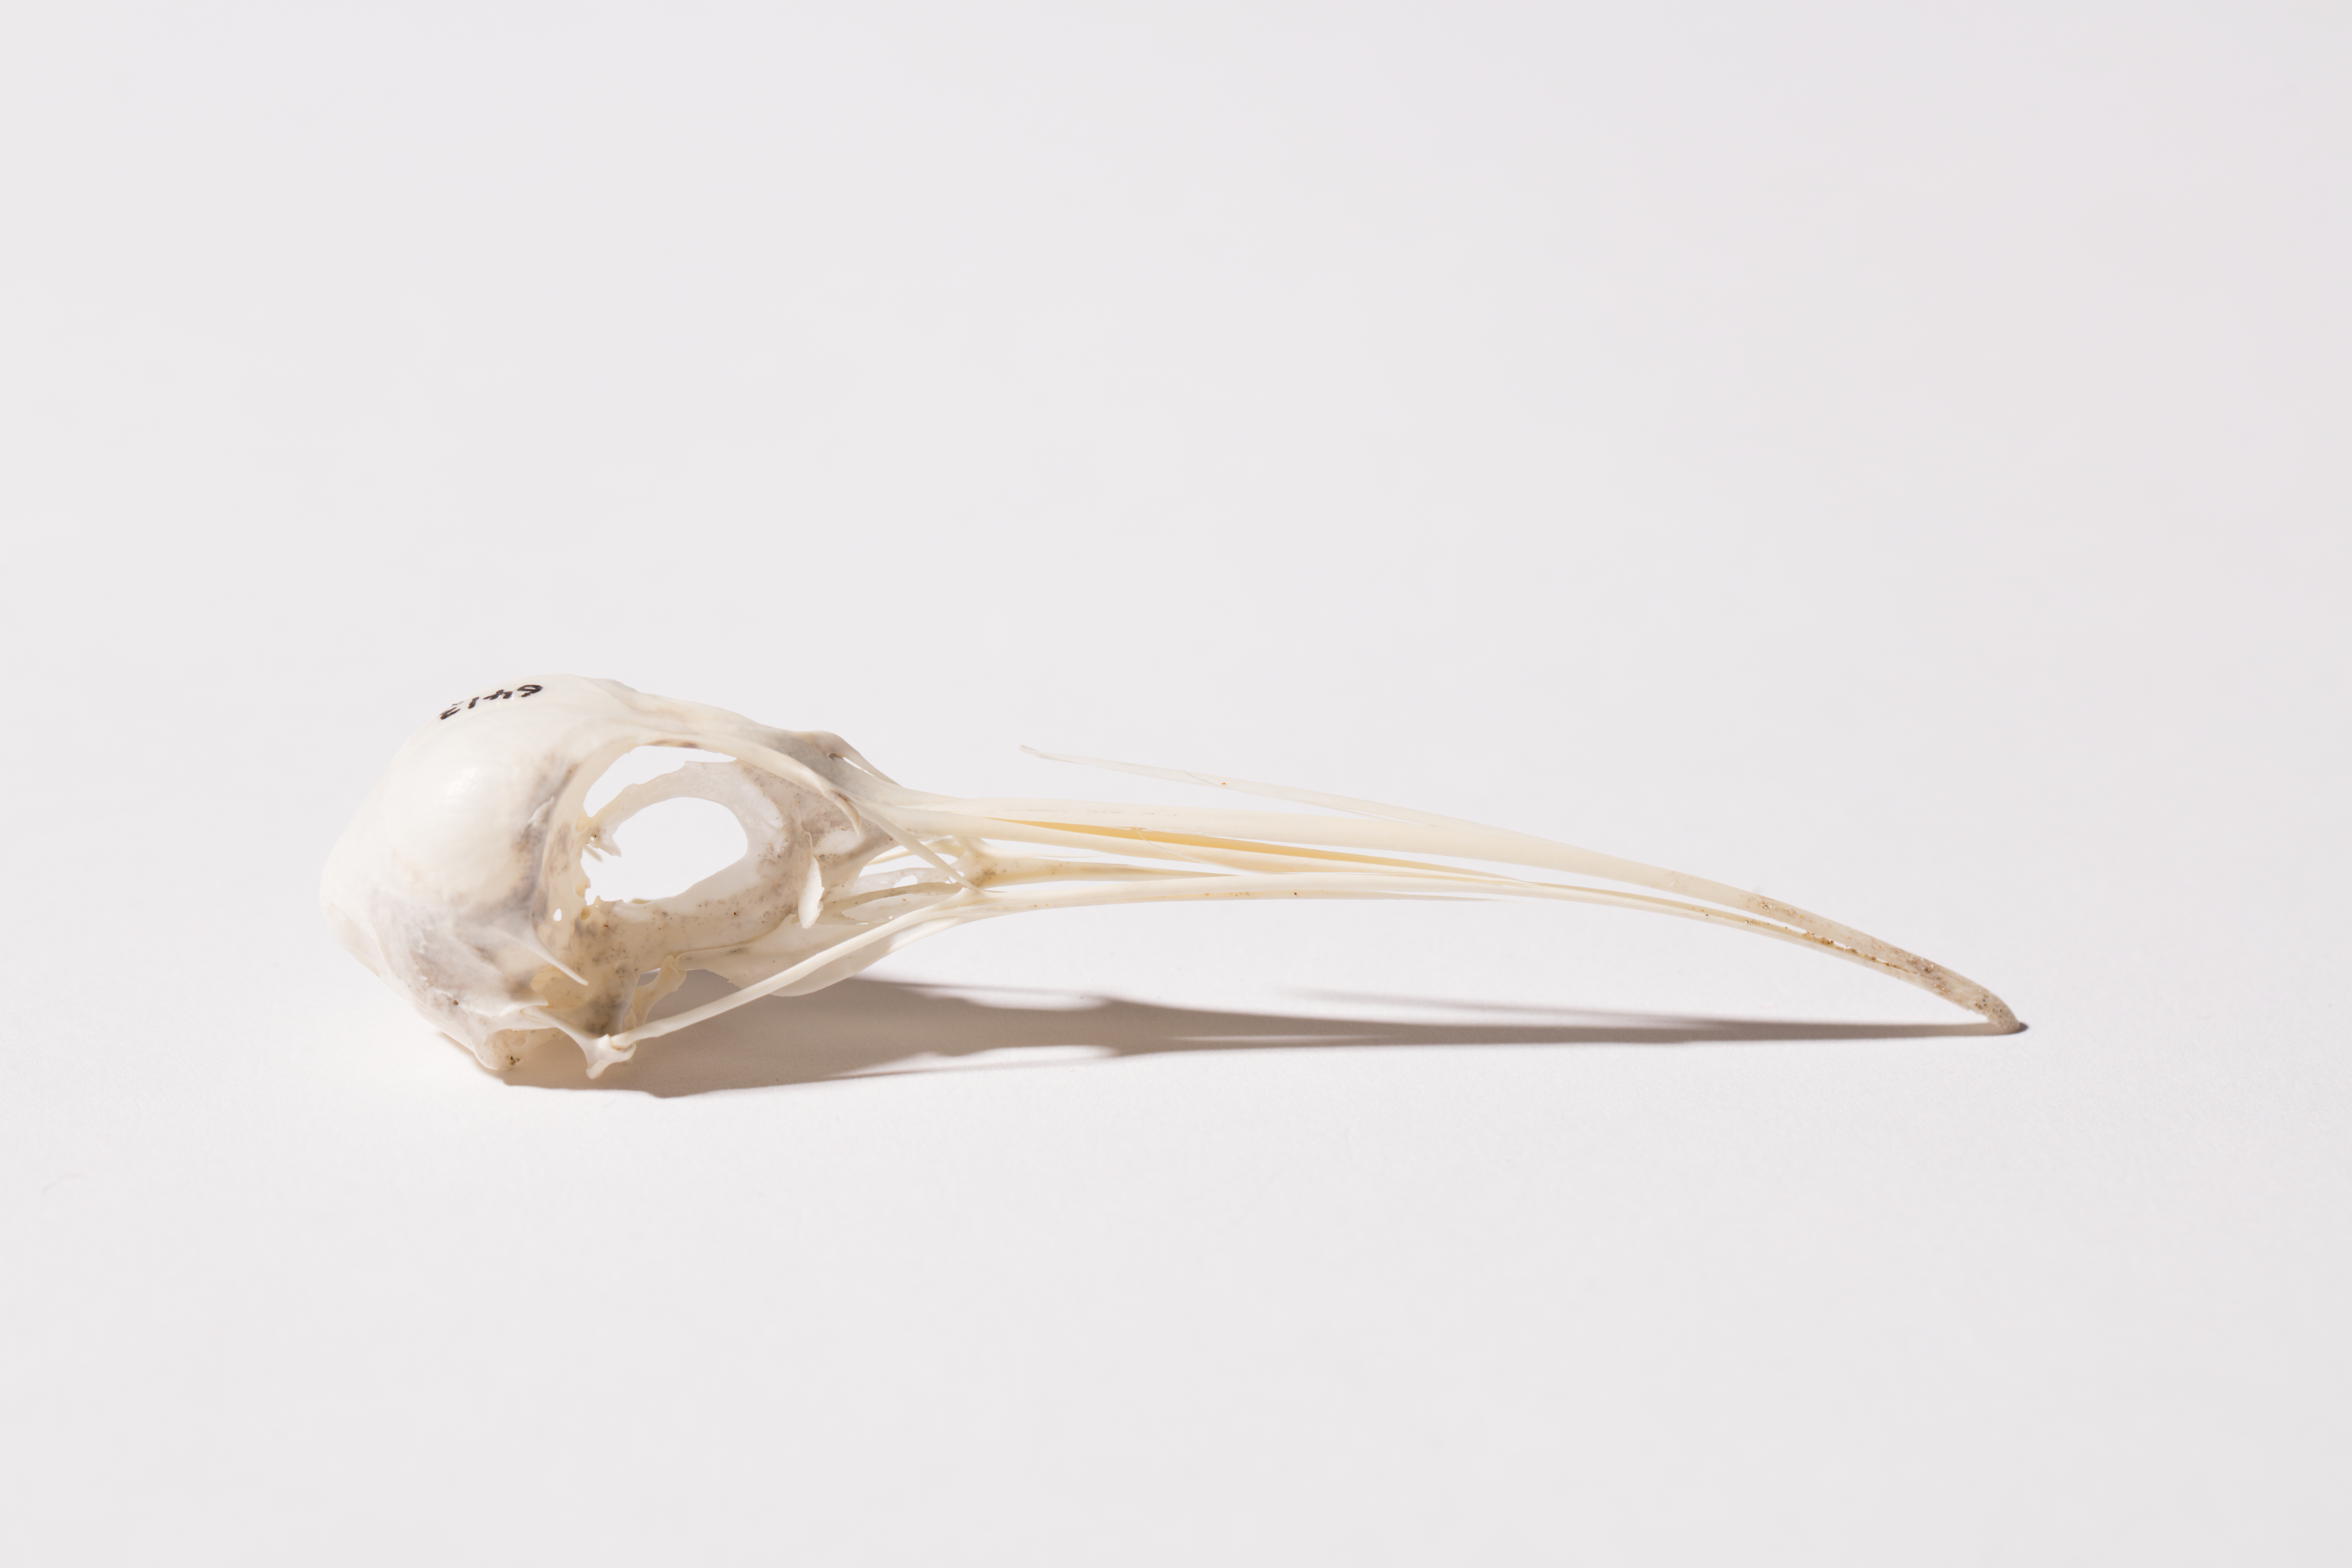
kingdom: Animalia
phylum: Chordata
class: Aves
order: Charadriiformes
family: Scolopacidae
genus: Numenius
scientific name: Numenius minutus
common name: Little curlew
